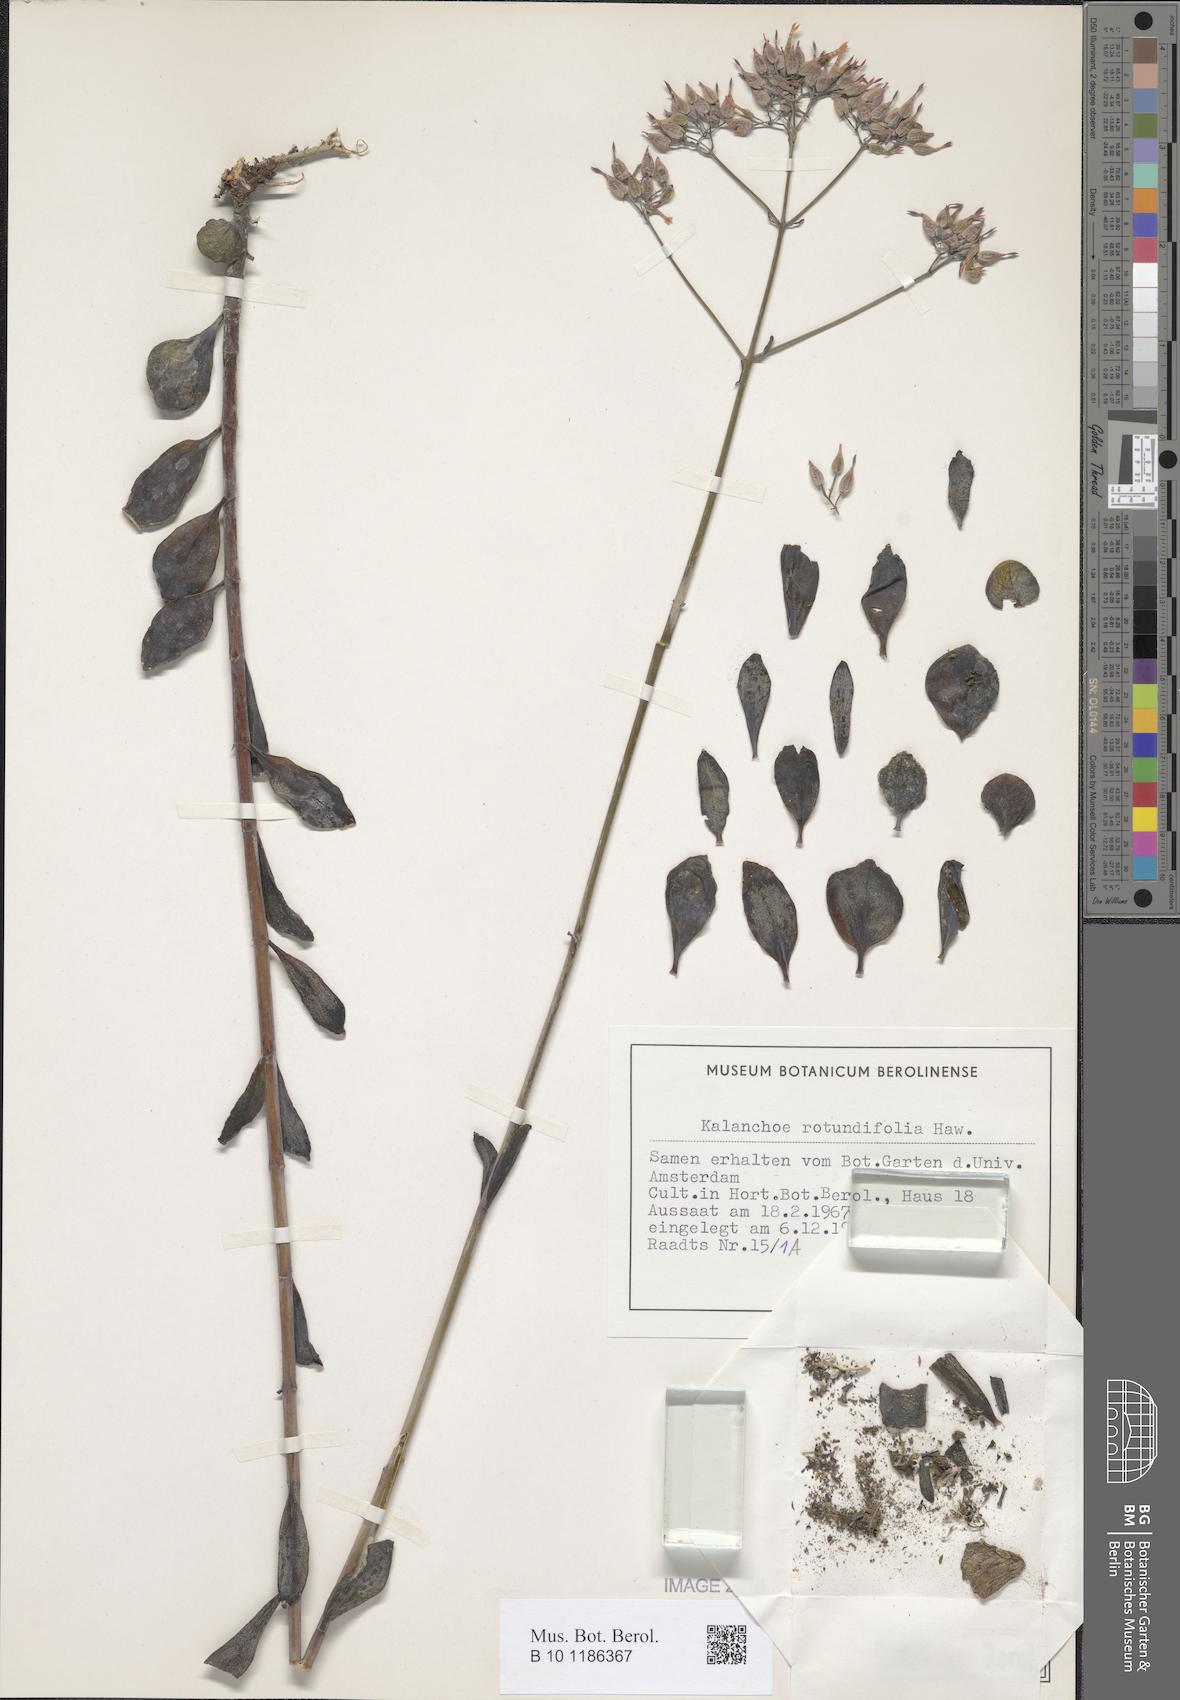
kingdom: Plantae
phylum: Tracheophyta
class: Magnoliopsida
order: Saxifragales
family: Crassulaceae
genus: Kalanchoe
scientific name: Kalanchoe rotundifolia
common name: Common kalanchoe
